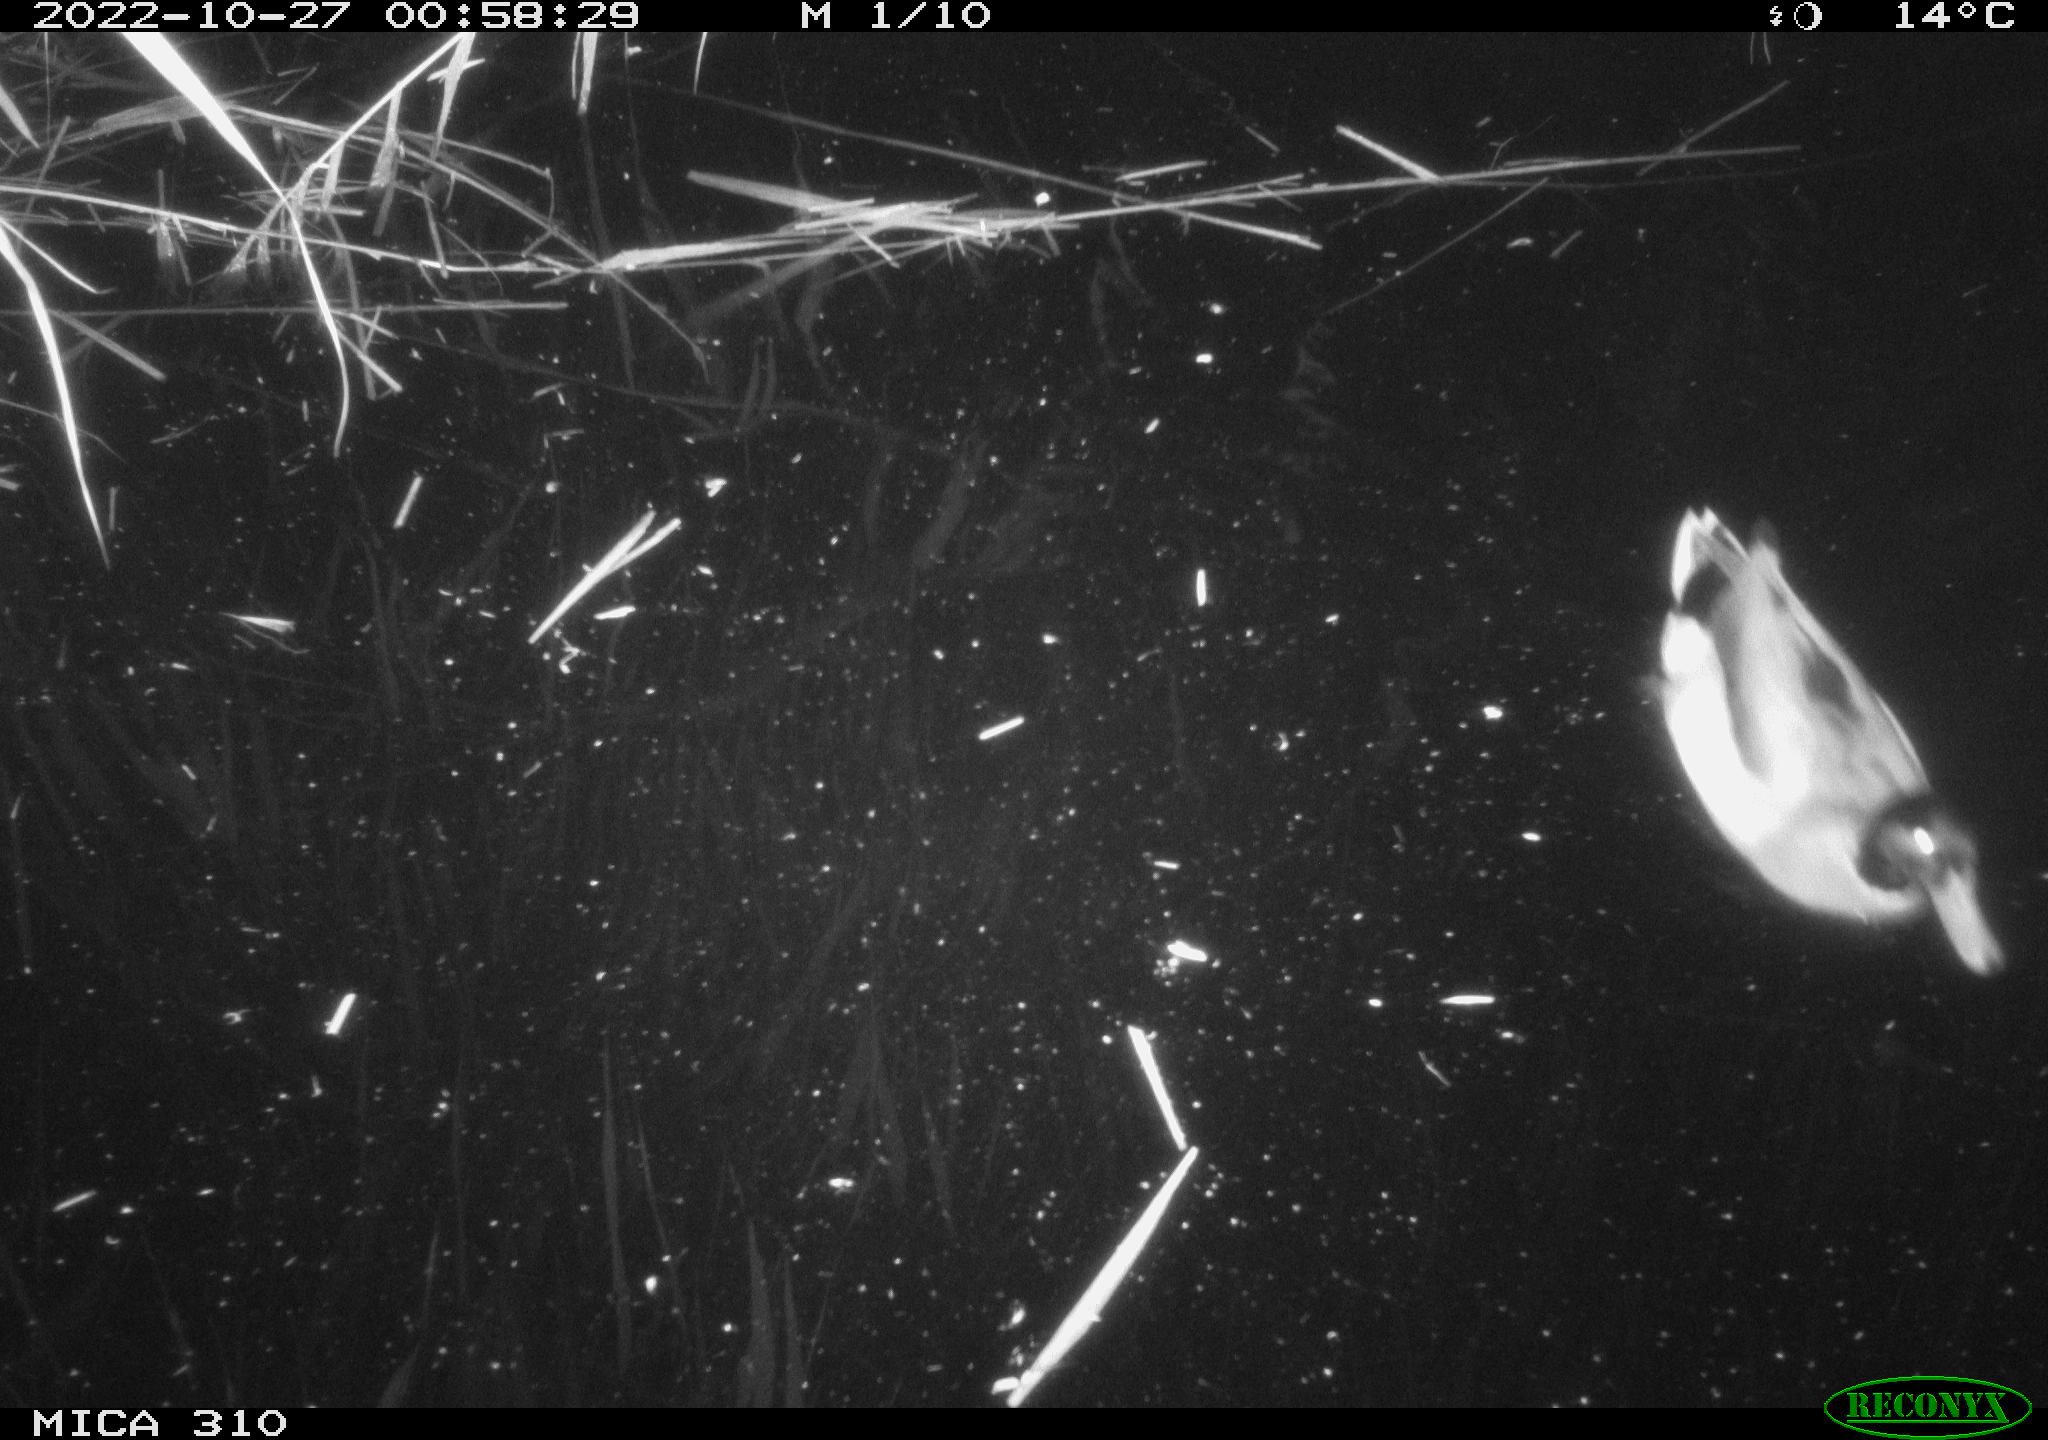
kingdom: Animalia
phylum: Chordata
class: Aves
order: Anseriformes
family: Anatidae
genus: Anas
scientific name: Anas
